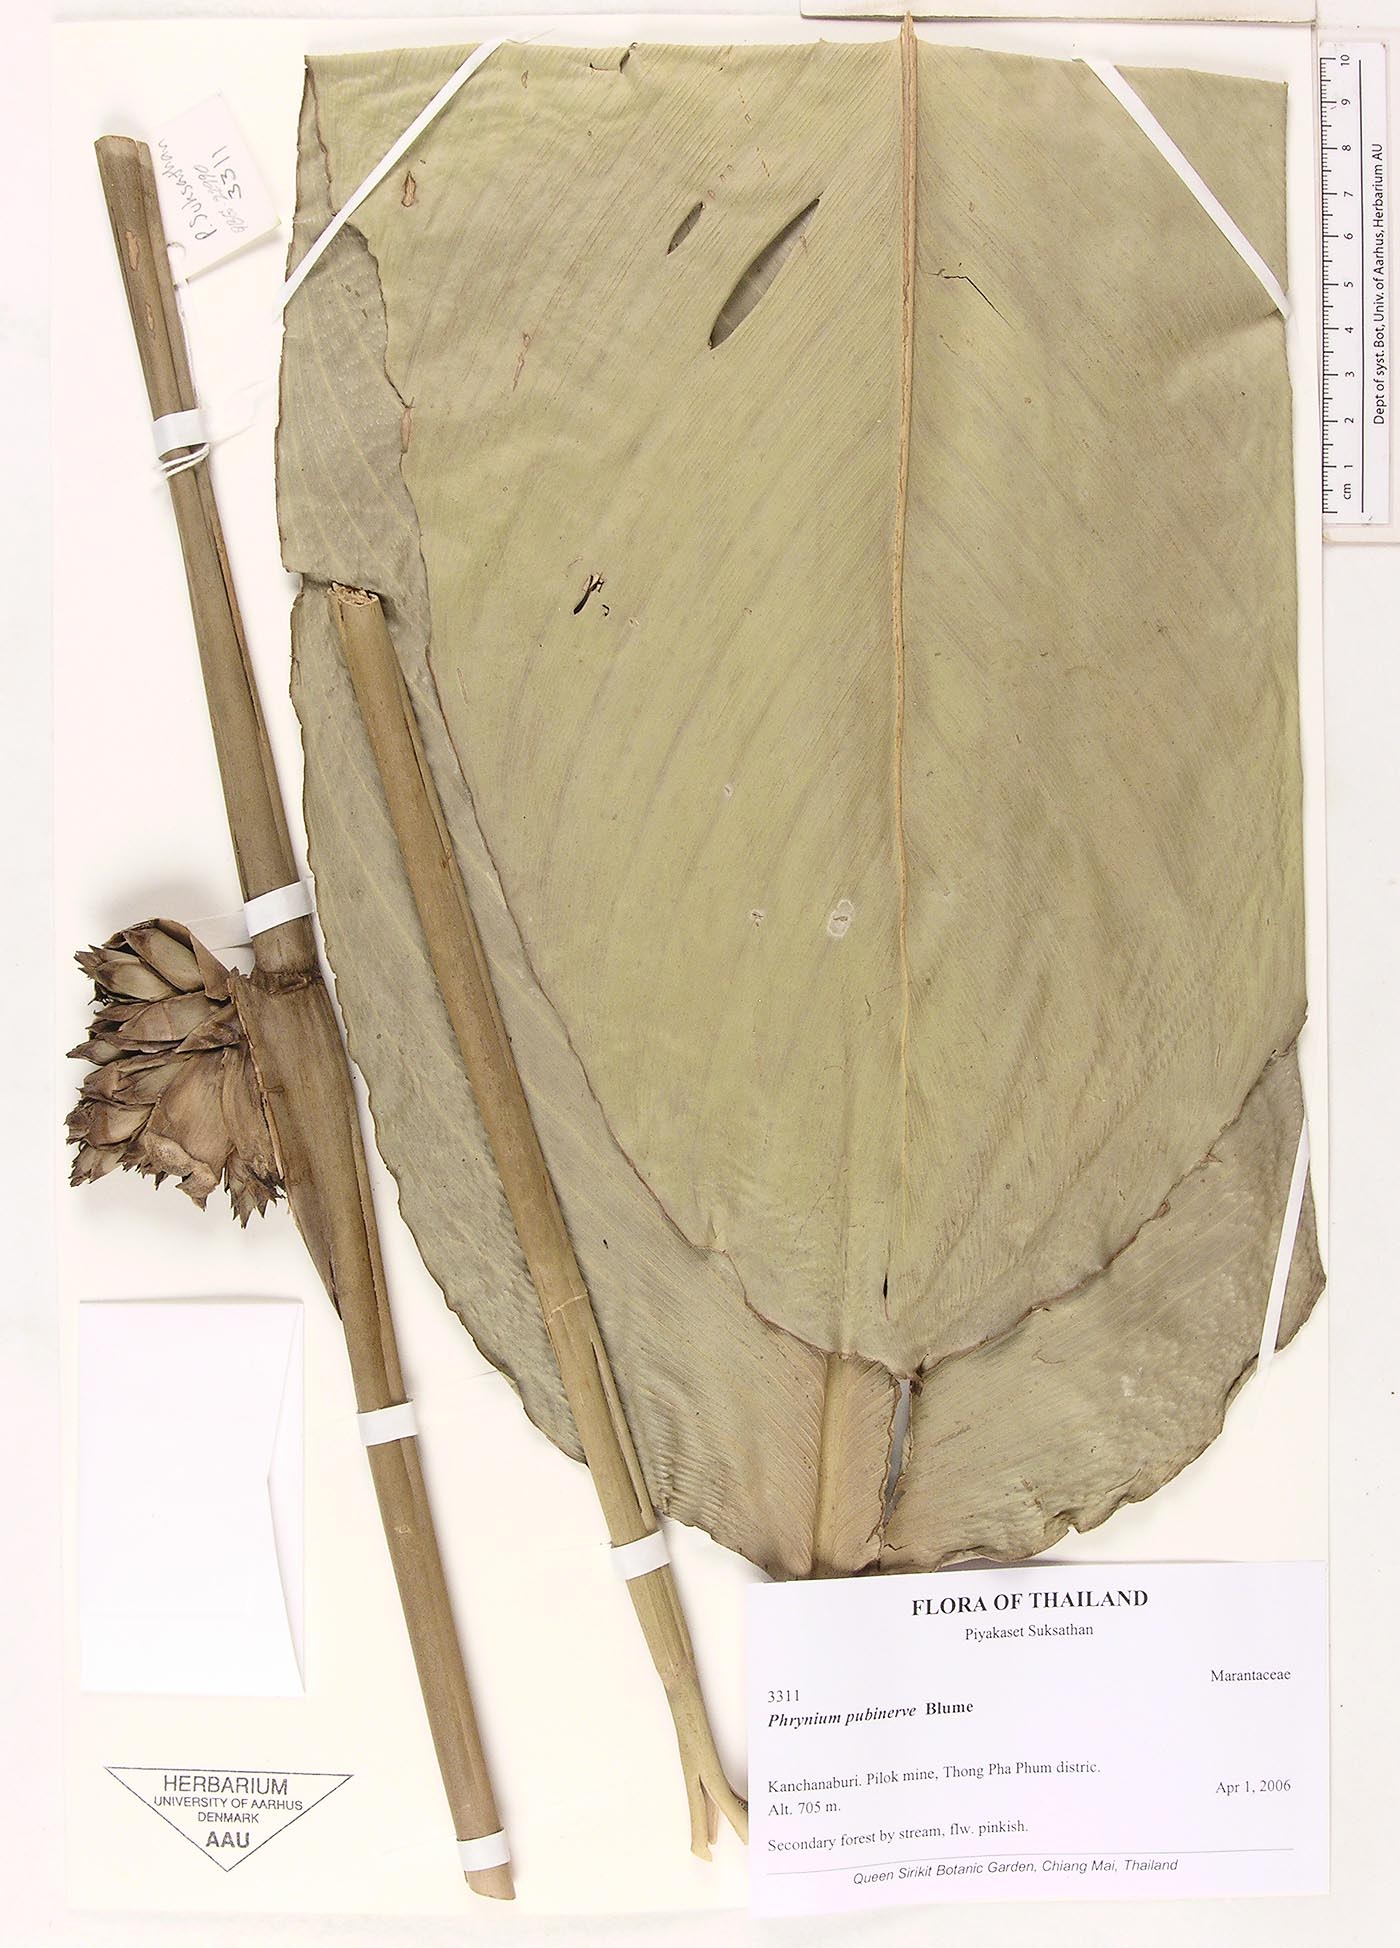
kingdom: Plantae
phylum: Tracheophyta
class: Liliopsida
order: Zingiberales
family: Marantaceae
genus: Phrynium
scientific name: Phrynium pubinerve
